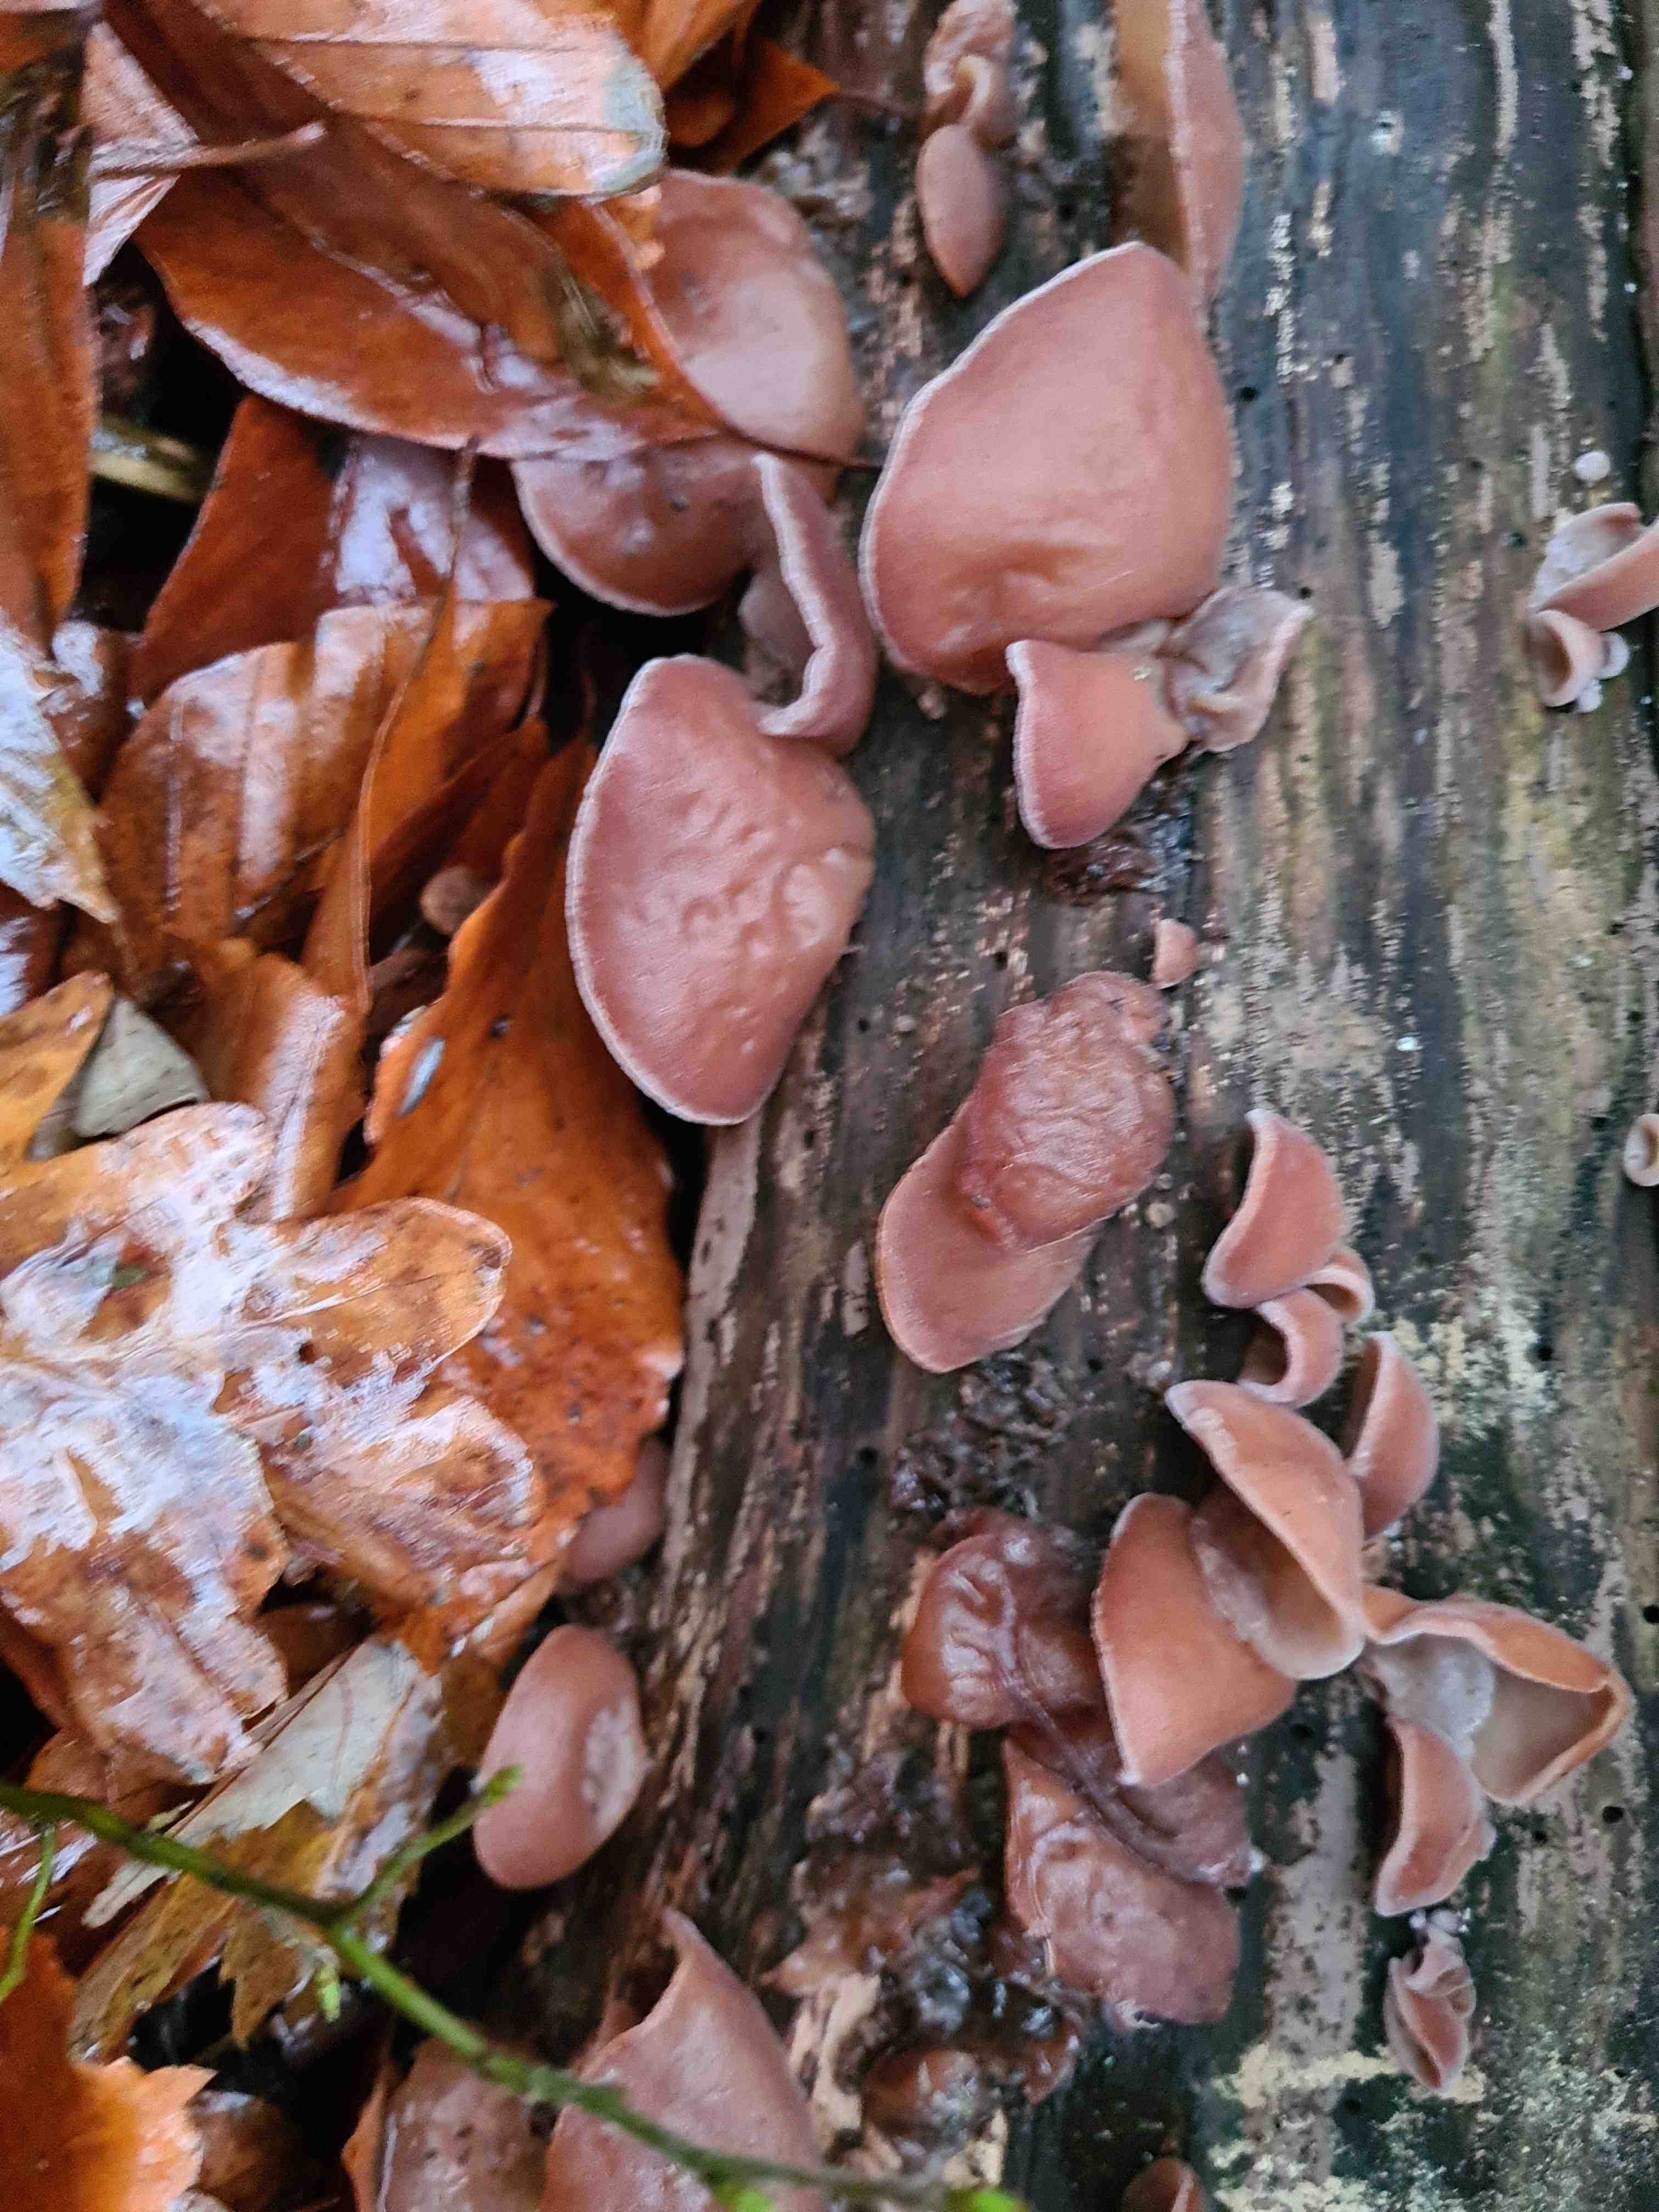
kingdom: Fungi
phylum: Basidiomycota
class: Agaricomycetes
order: Auriculariales
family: Auriculariaceae
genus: Auricularia
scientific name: Auricularia auricula-judae
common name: almindelig judasøre
